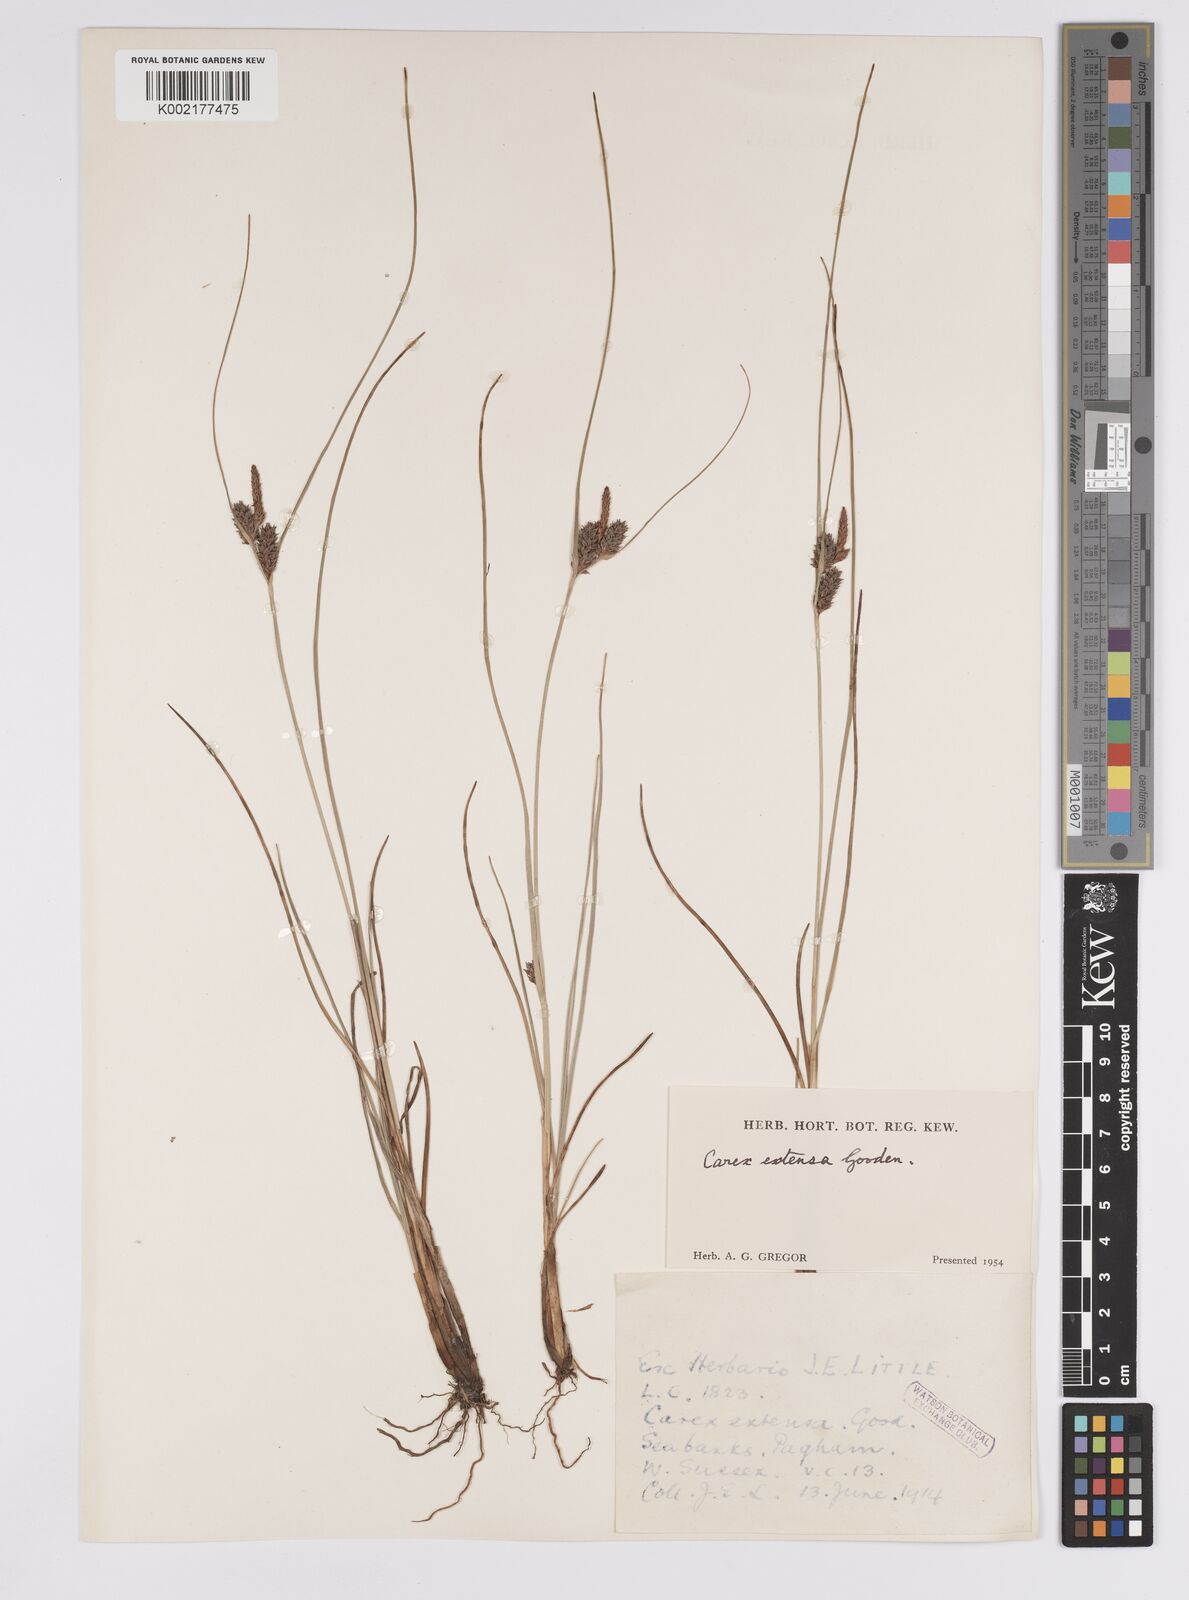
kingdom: Plantae
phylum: Tracheophyta
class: Liliopsida
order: Poales
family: Cyperaceae
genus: Carex
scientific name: Carex extensa
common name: Long-bracted sedge
